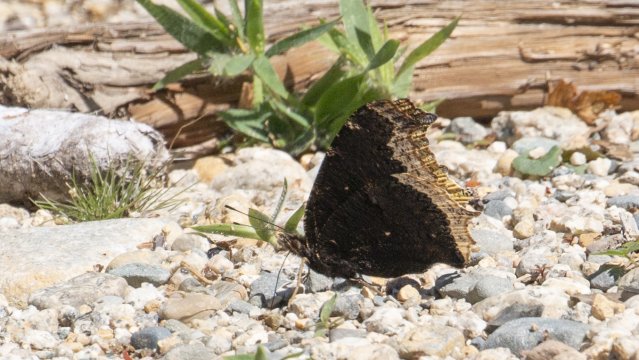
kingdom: Animalia
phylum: Arthropoda
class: Insecta
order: Lepidoptera
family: Nymphalidae
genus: Nymphalis
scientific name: Nymphalis antiopa
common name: Mourning Cloak
